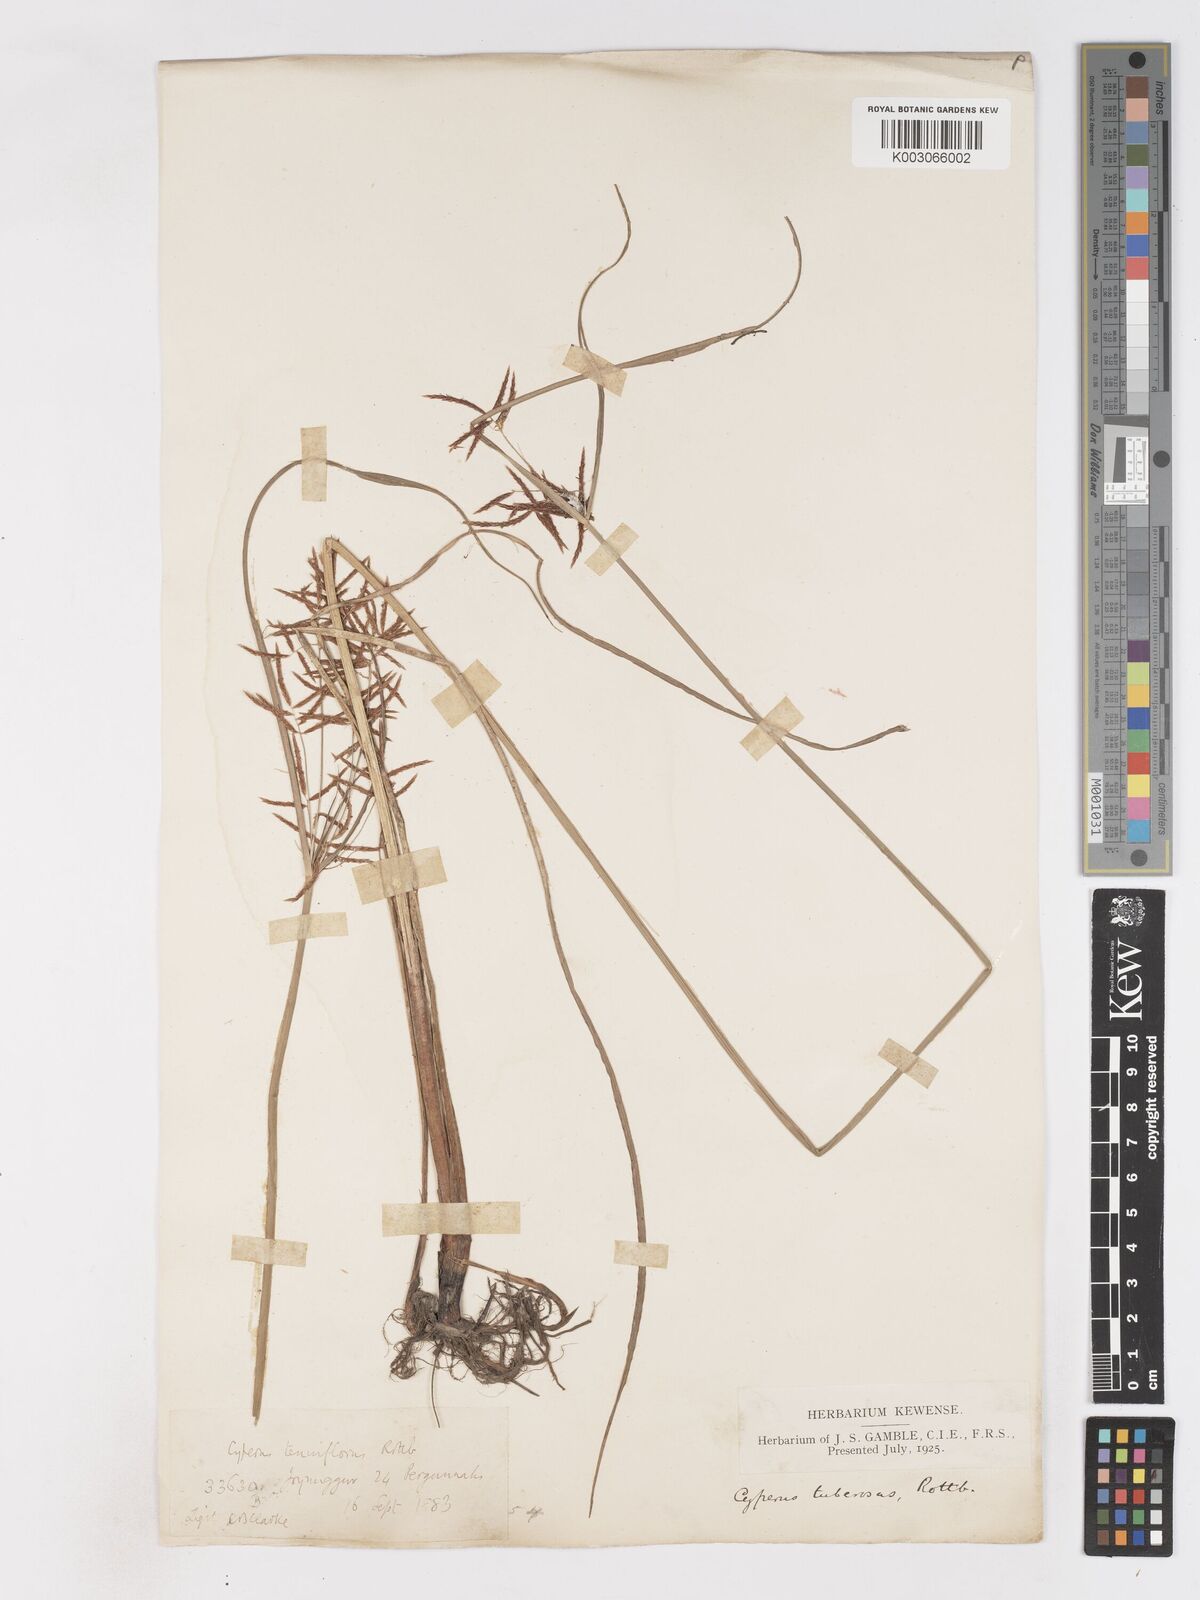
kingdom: Plantae
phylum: Tracheophyta
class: Liliopsida
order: Poales
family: Cyperaceae
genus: Cyperus
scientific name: Cyperus mitis
